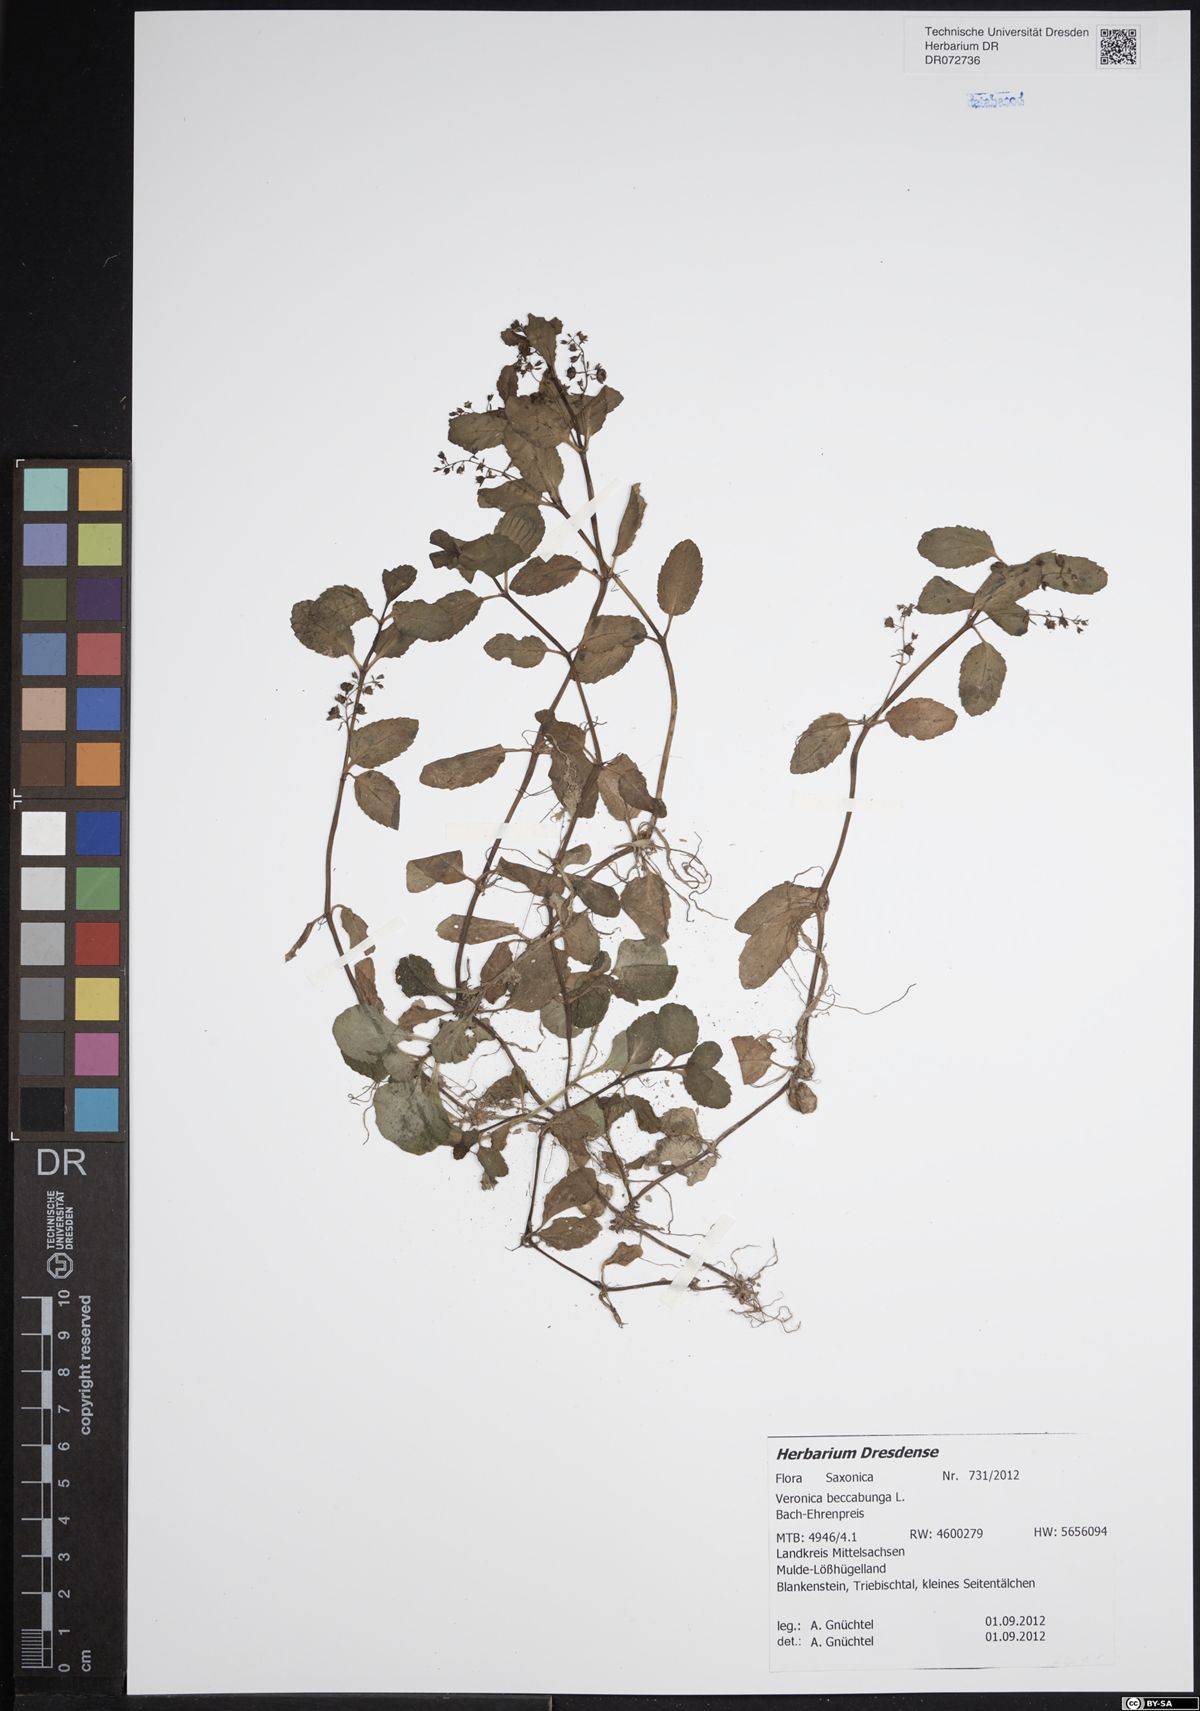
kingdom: Plantae
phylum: Tracheophyta
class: Magnoliopsida
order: Lamiales
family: Plantaginaceae
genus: Veronica
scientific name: Veronica beccabunga
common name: Brooklime
